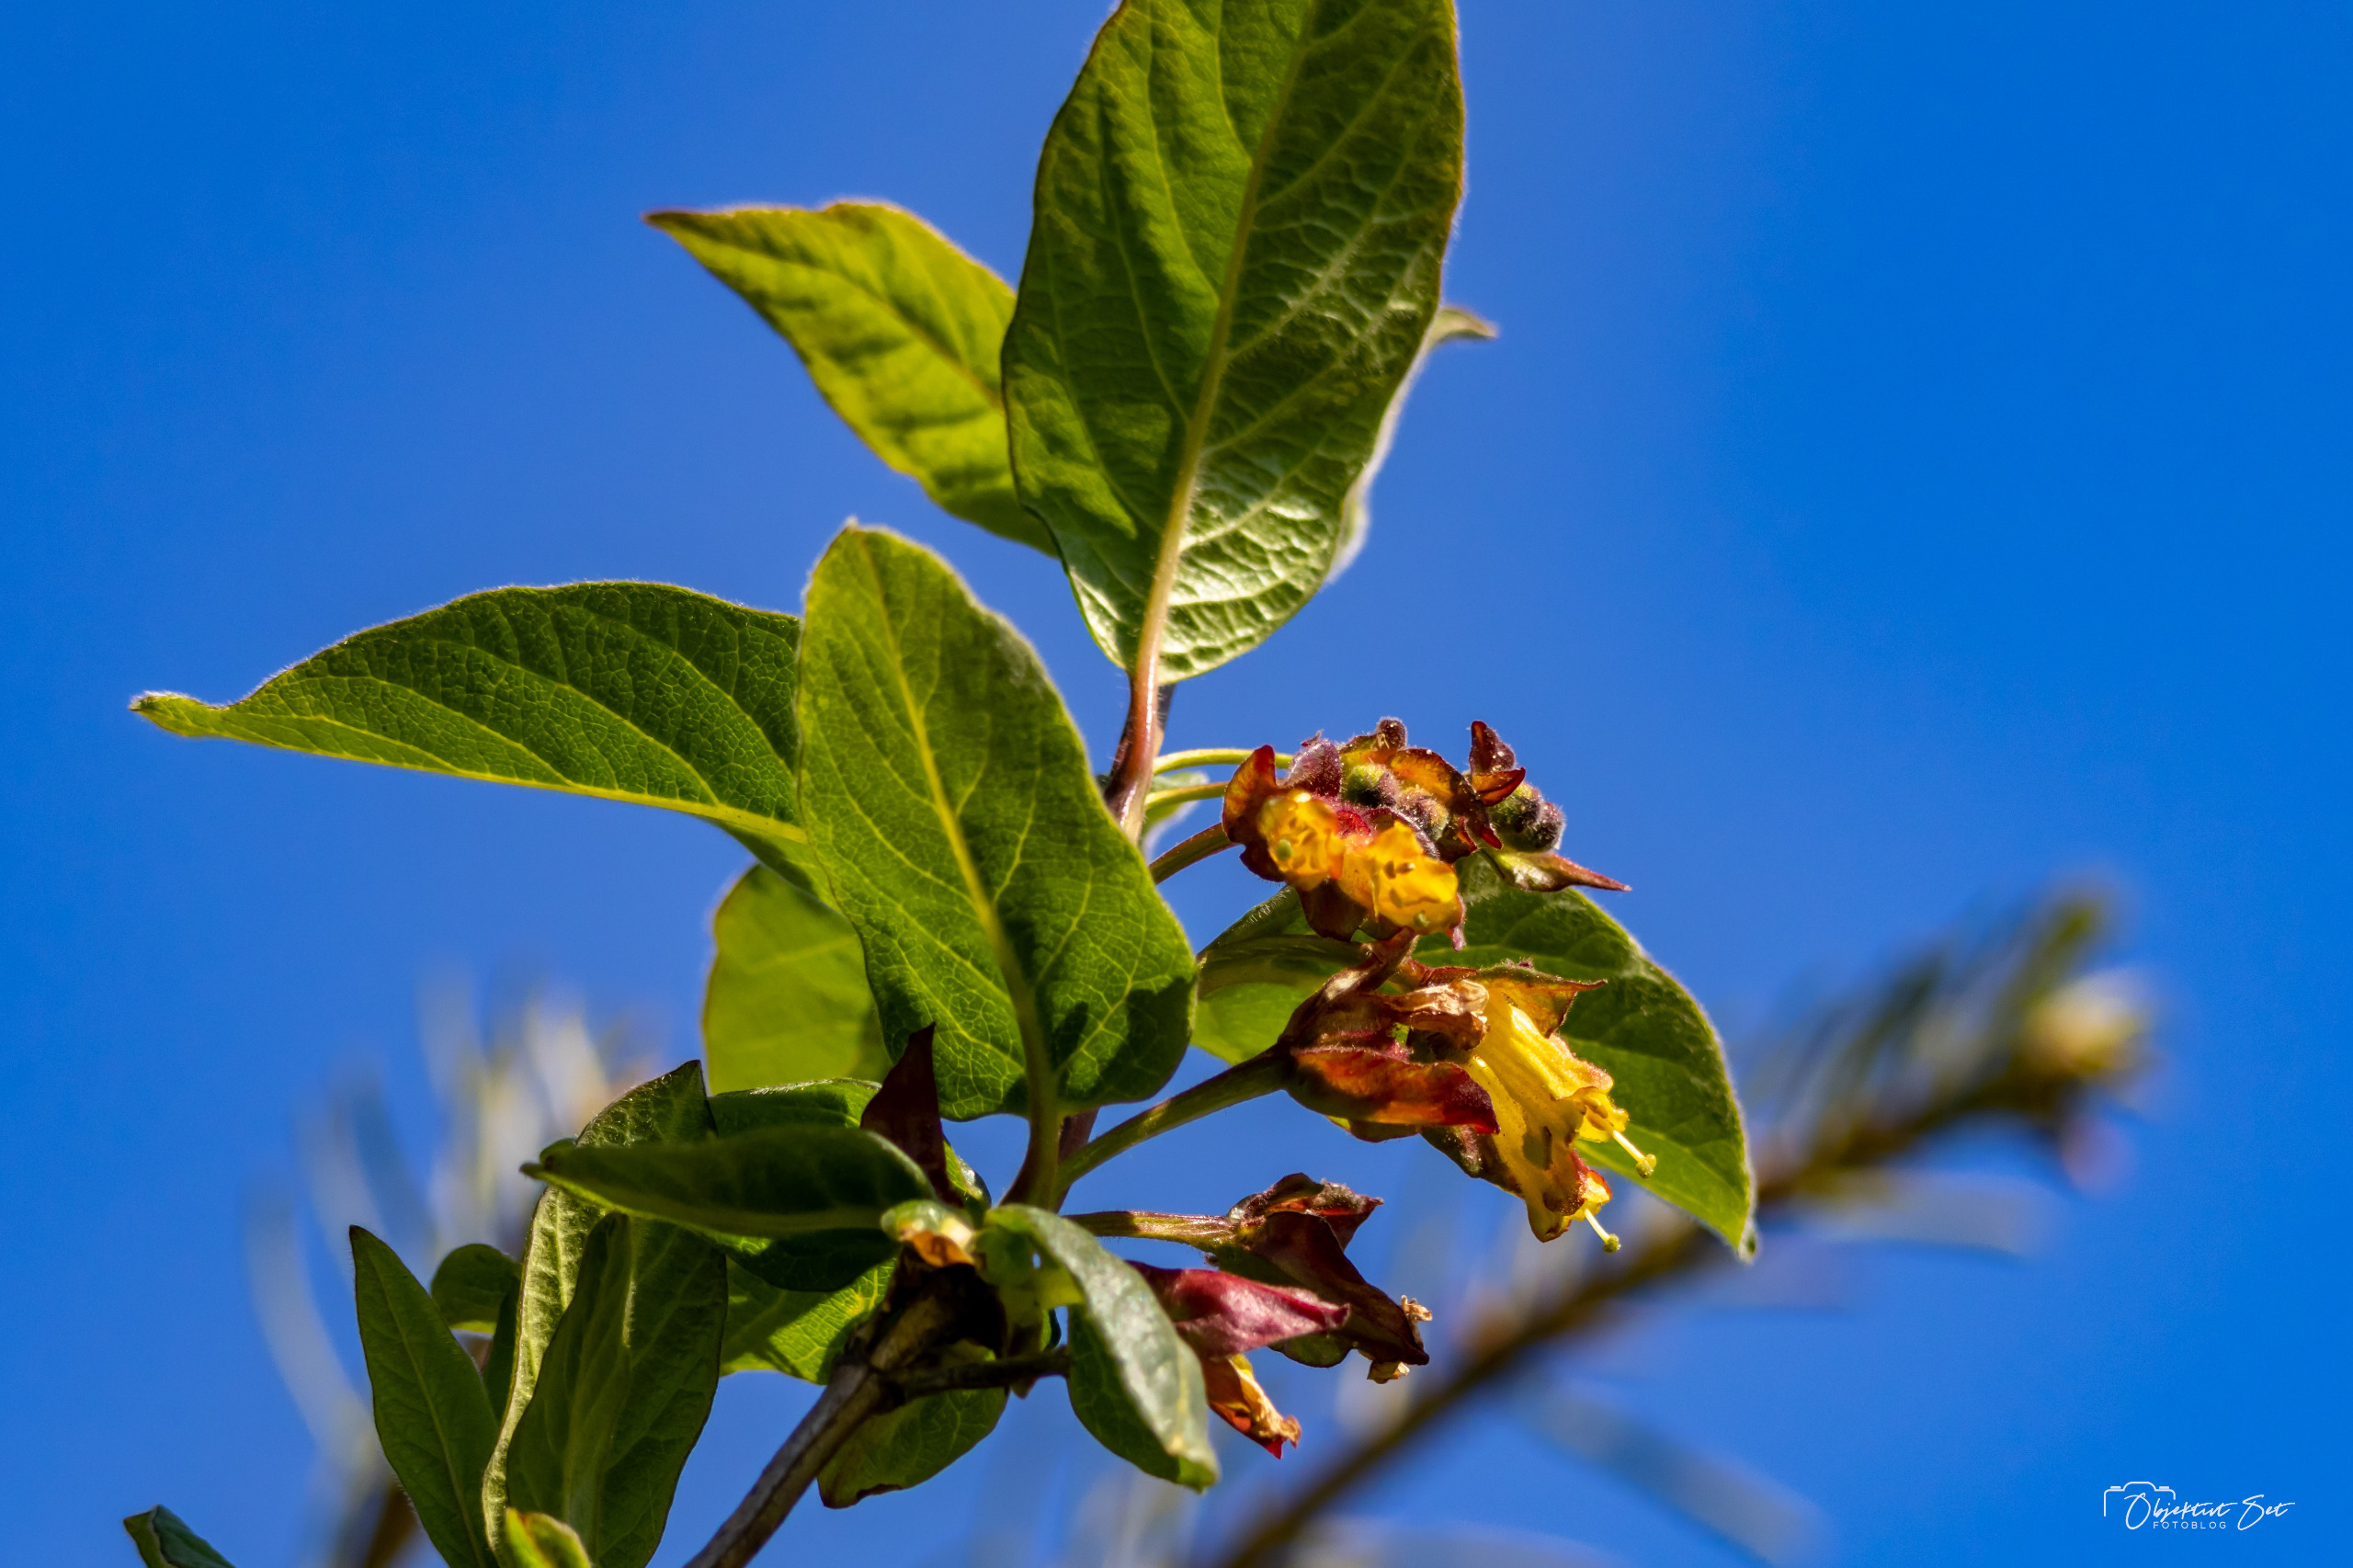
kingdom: Plantae
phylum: Tracheophyta
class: Magnoliopsida
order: Dipsacales
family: Caprifoliaceae
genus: Lonicera
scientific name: Lonicera involucrata
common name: Californisk gedeblad
